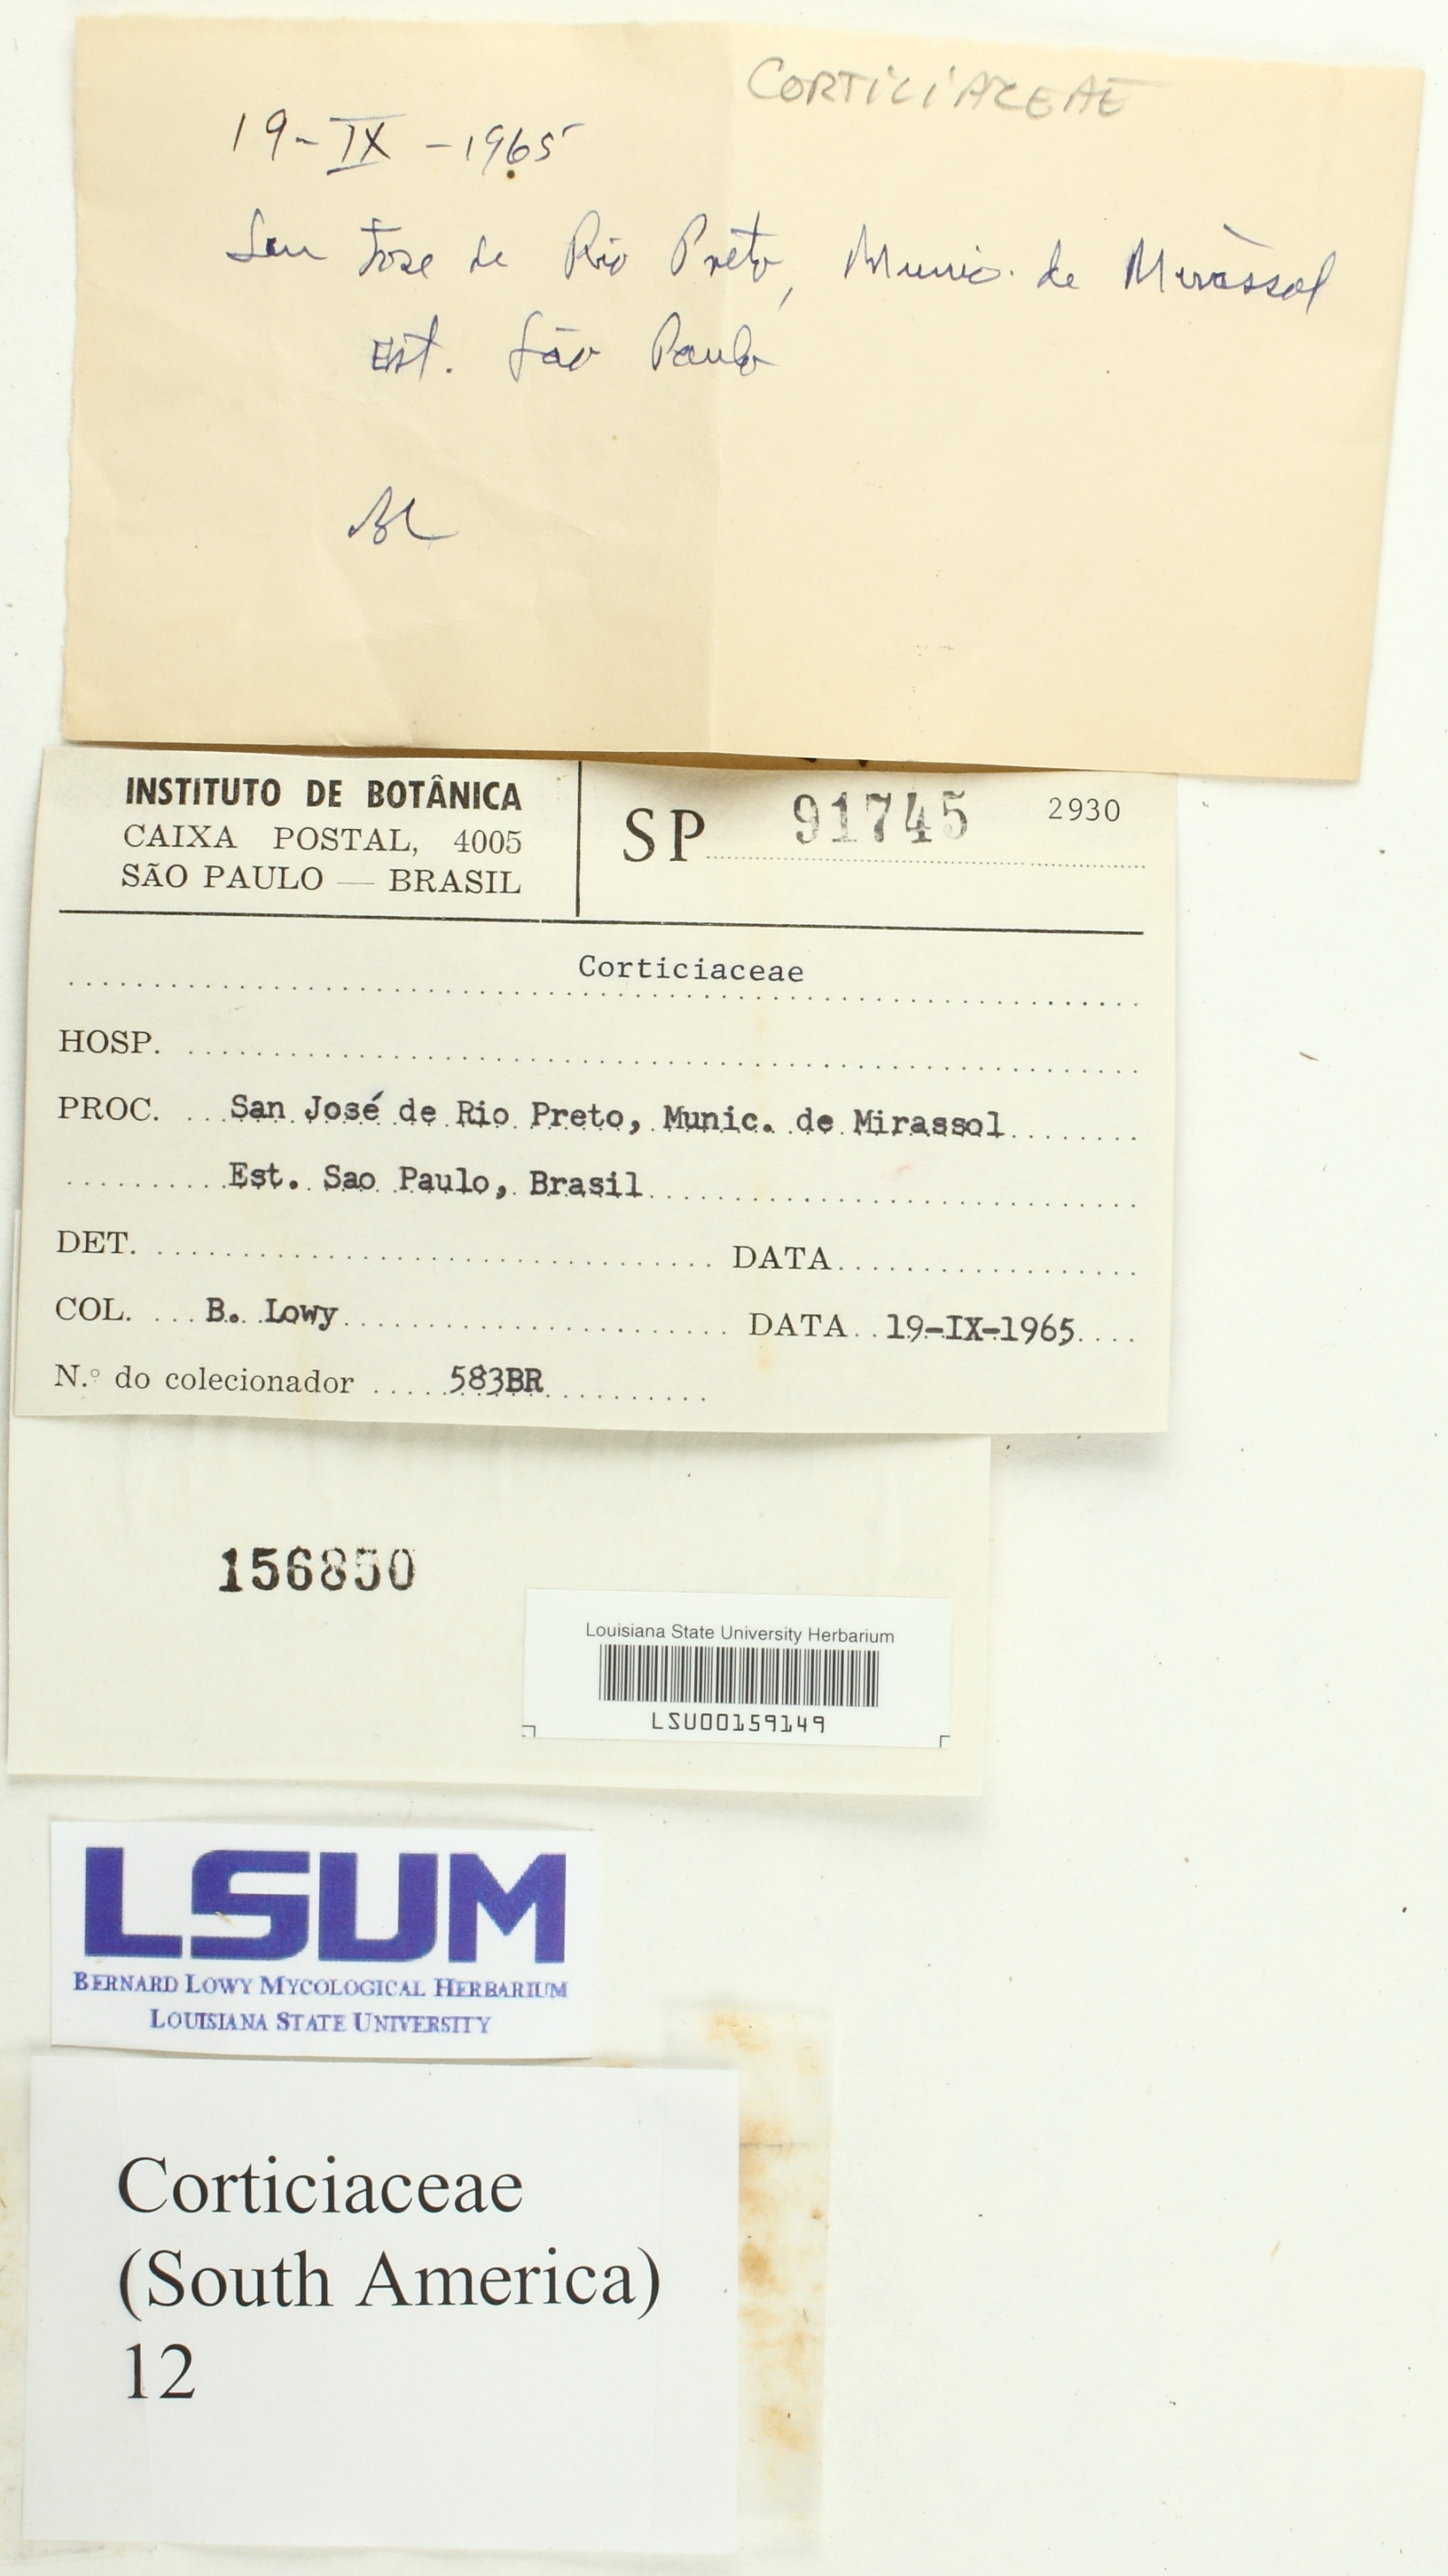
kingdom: Fungi
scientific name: Fungi
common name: Fungi
